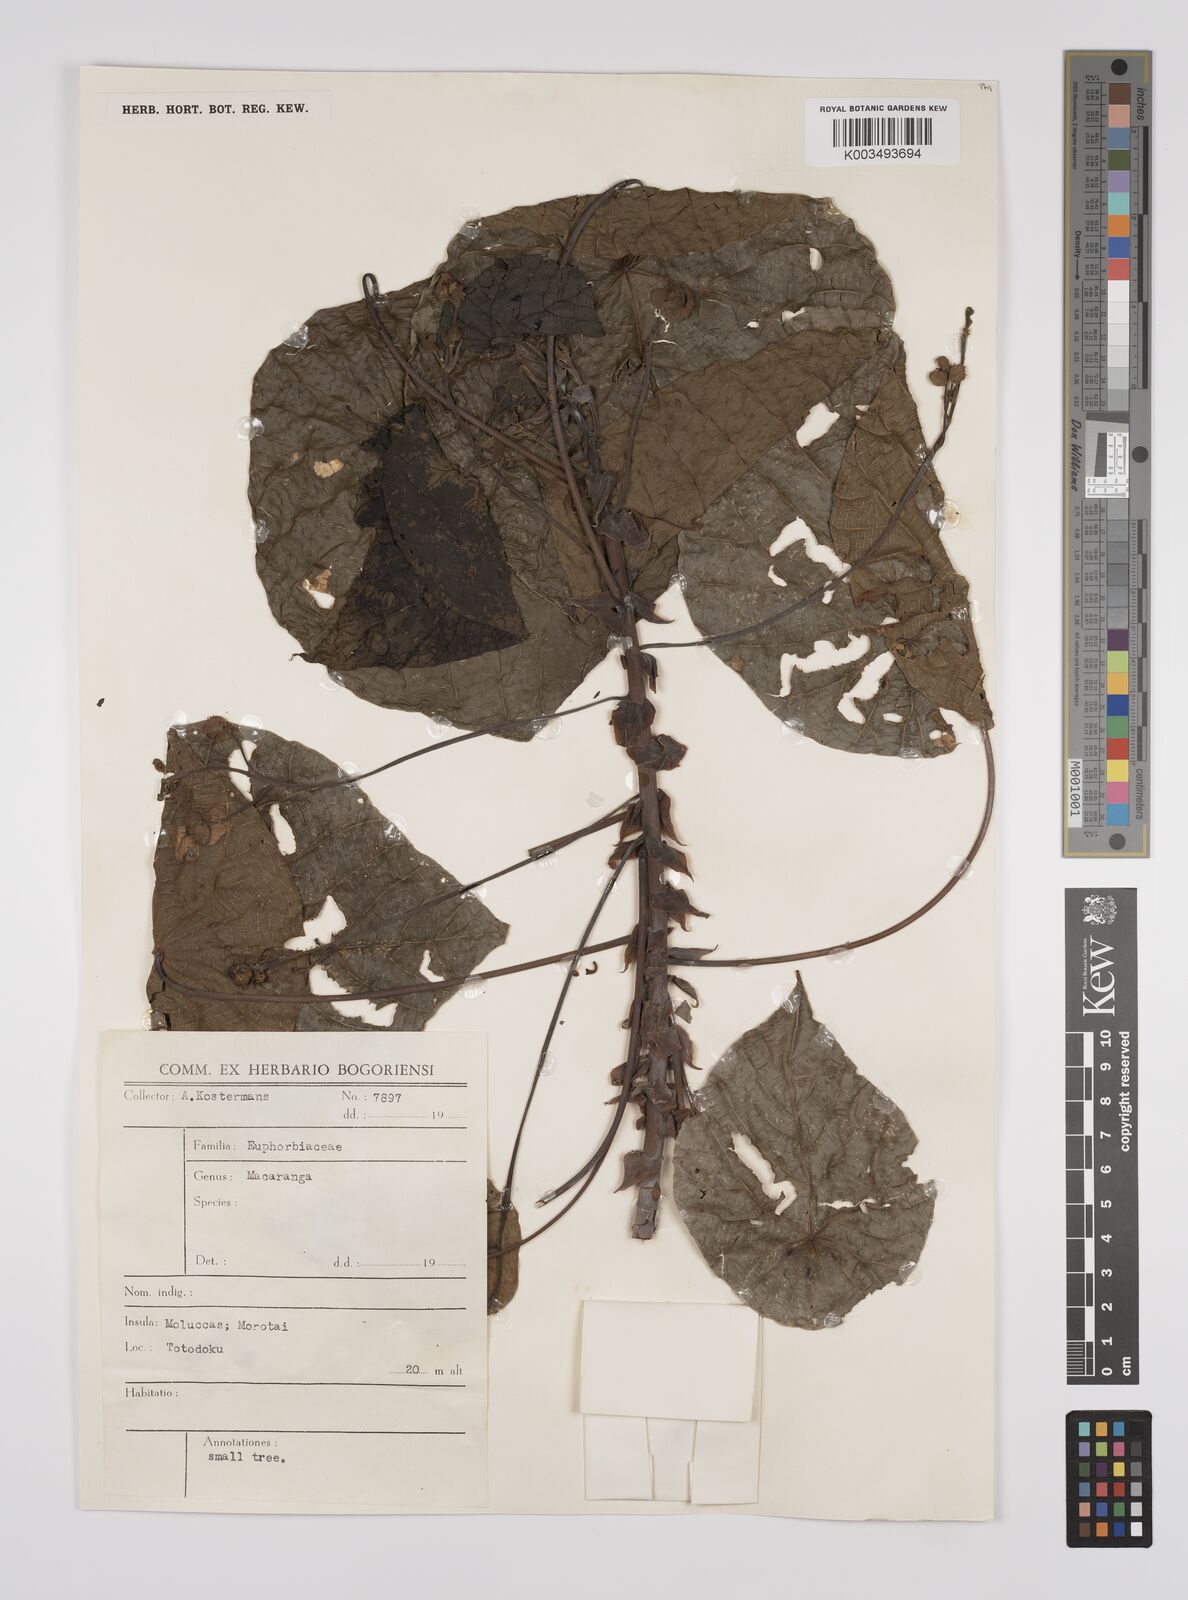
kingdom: Plantae
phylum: Tracheophyta
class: Magnoliopsida
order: Malpighiales
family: Euphorbiaceae
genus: Macaranga
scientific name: Macaranga tanarius
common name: Parasol leaf tree
